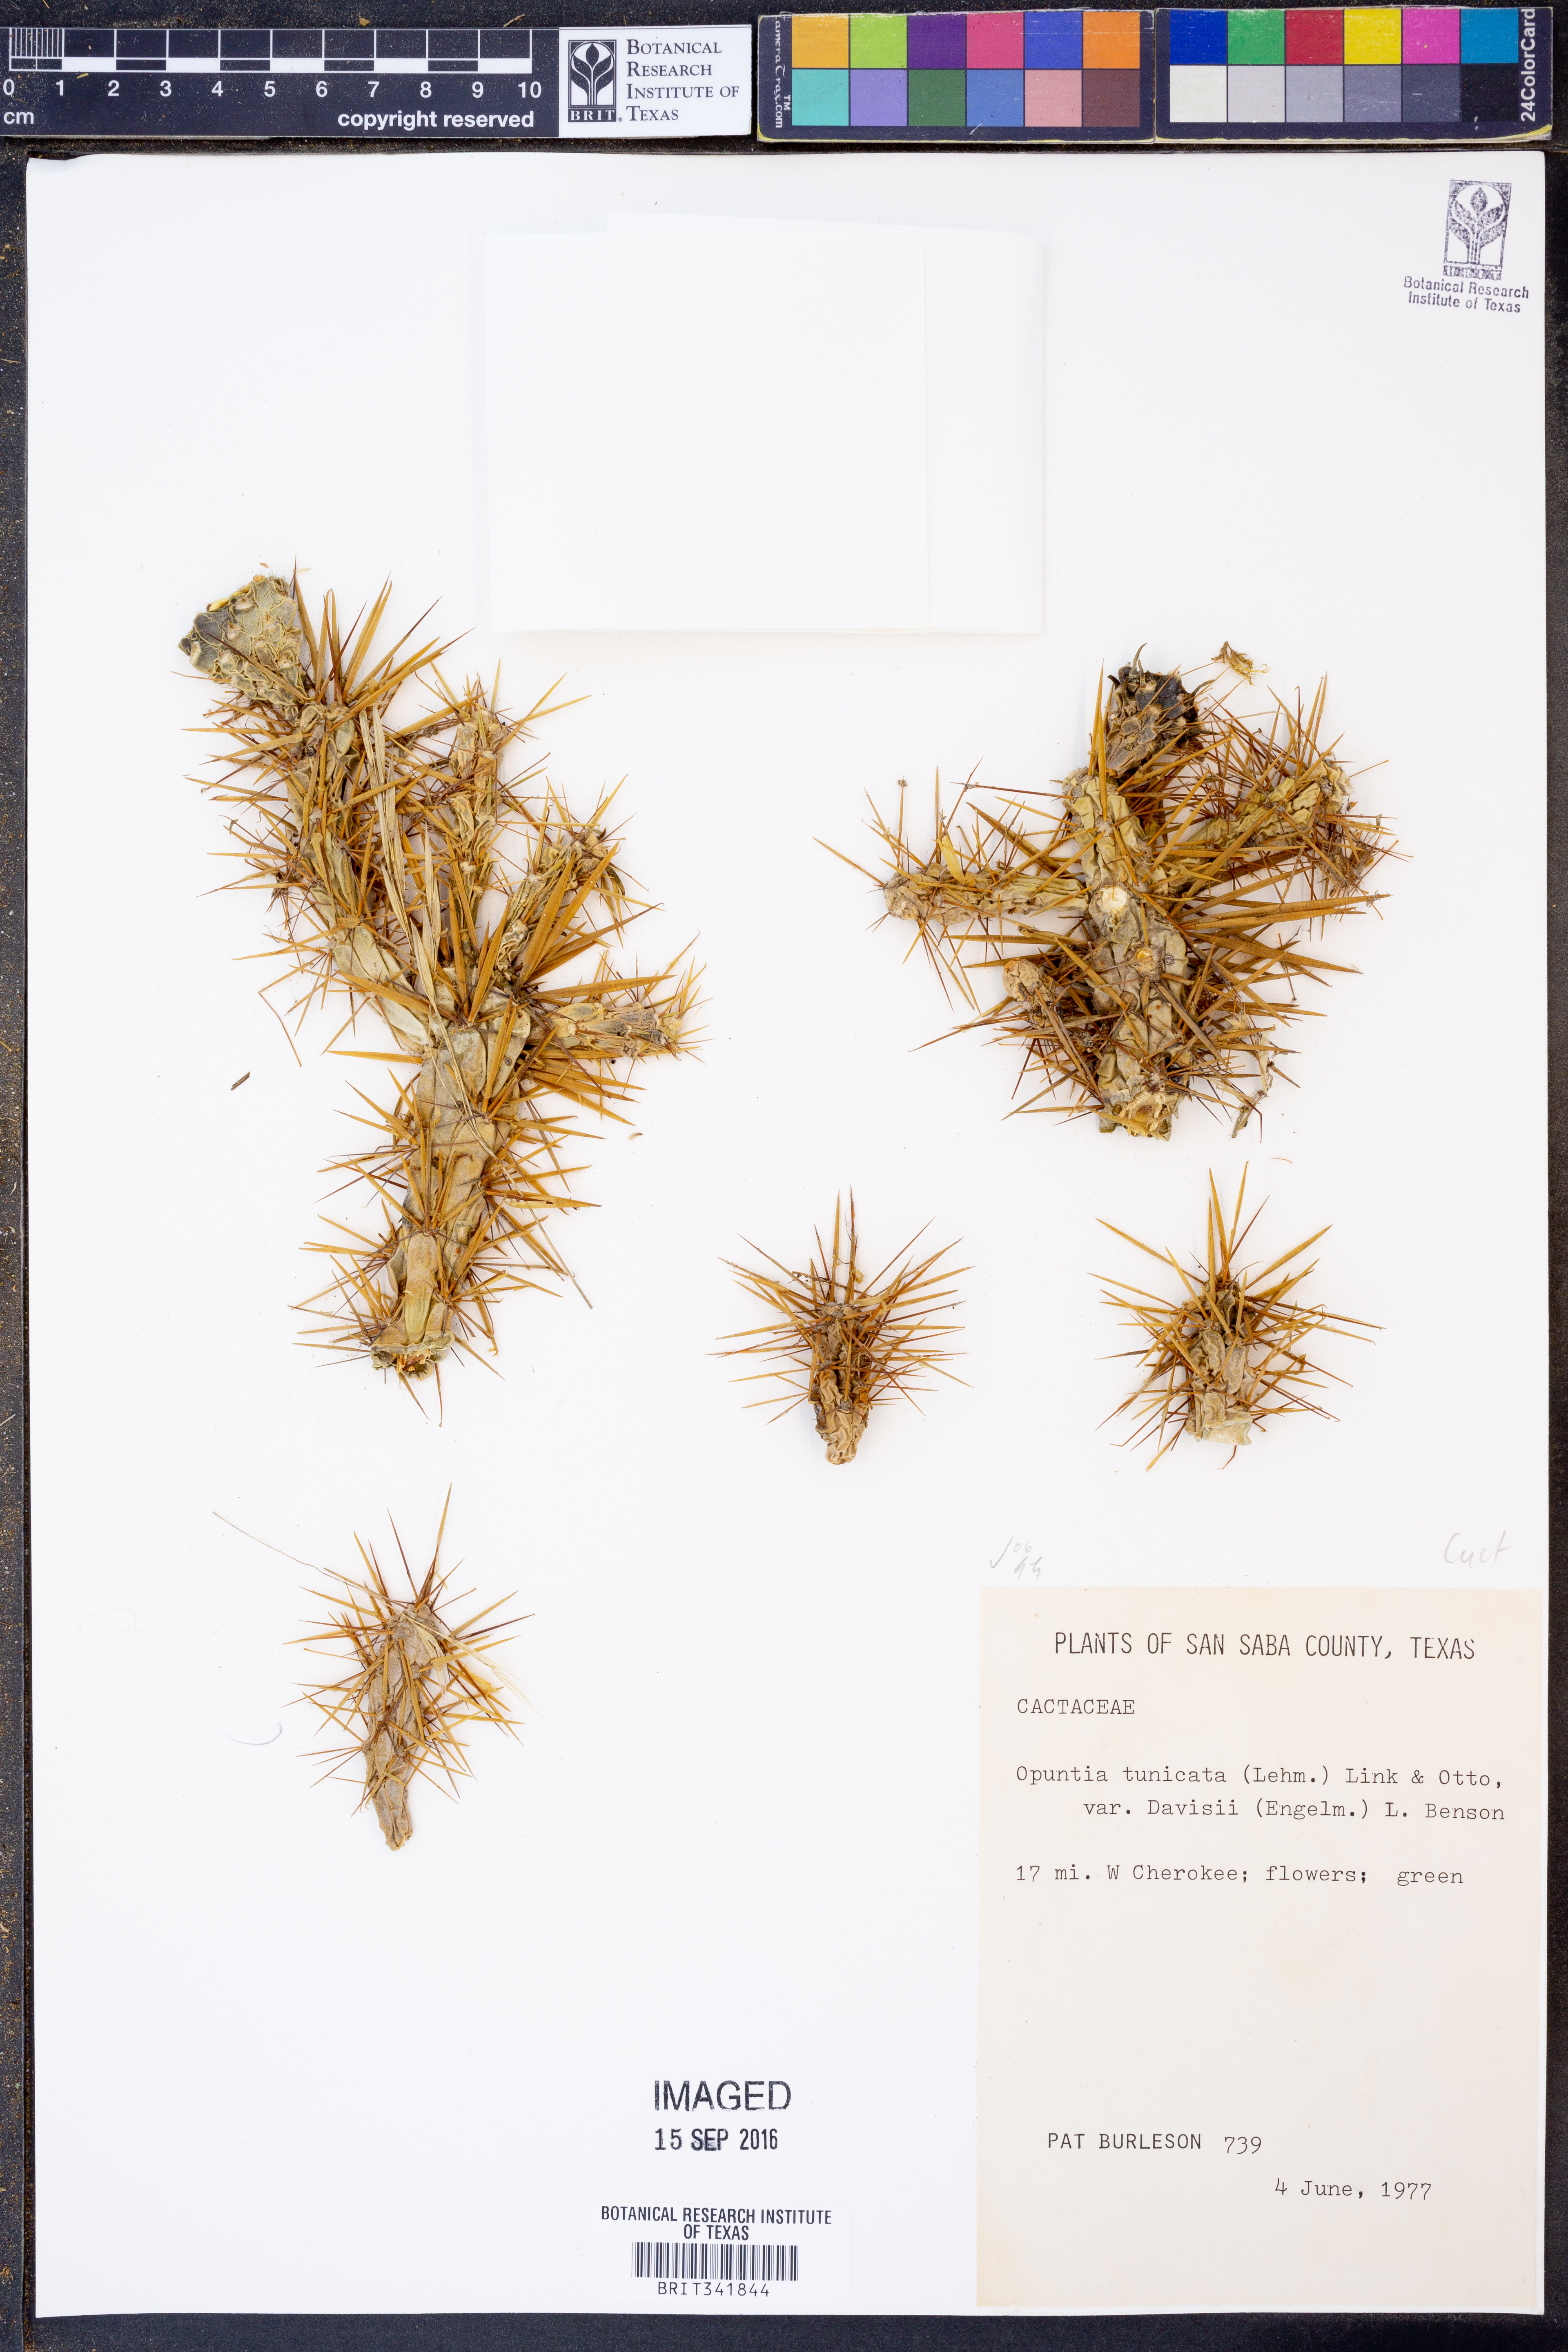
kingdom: Plantae
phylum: Tracheophyta
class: Magnoliopsida
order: Caryophyllales
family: Cactaceae
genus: Cylindropuntia
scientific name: Cylindropuntia davisii
